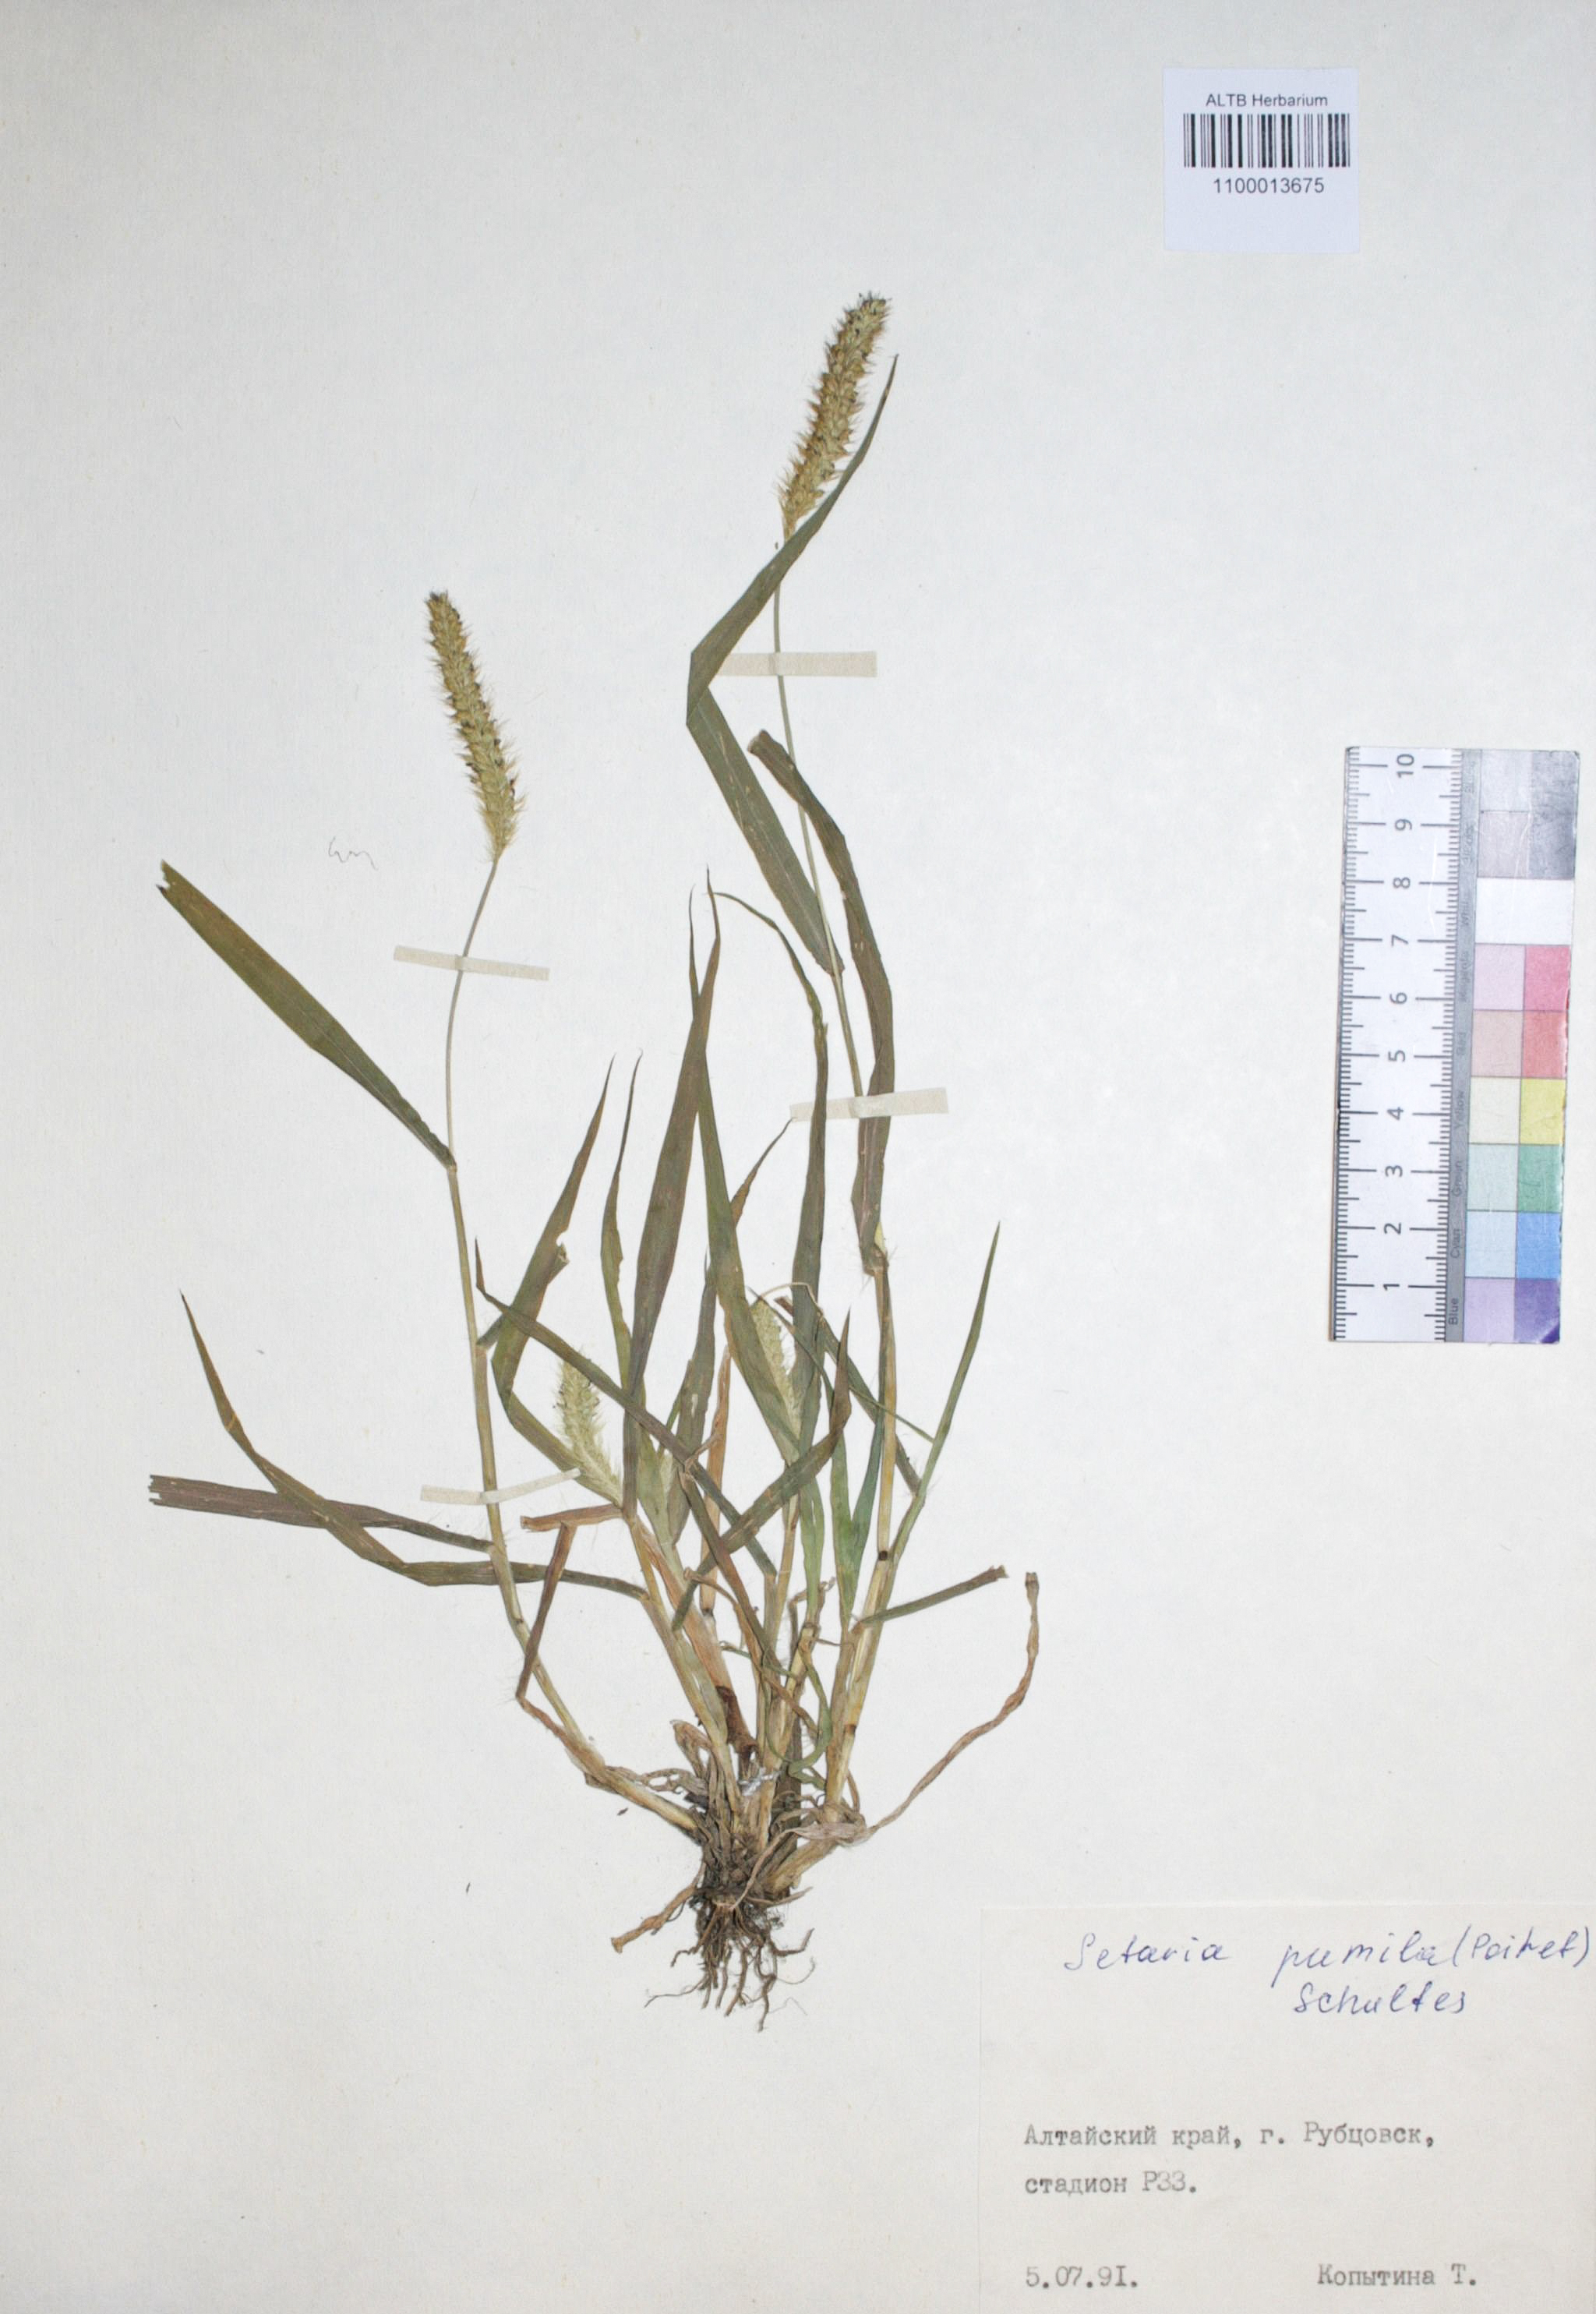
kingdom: Plantae
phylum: Tracheophyta
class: Liliopsida
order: Poales
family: Poaceae
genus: Setaria
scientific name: Setaria pumila
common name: Yellow bristle-grass
